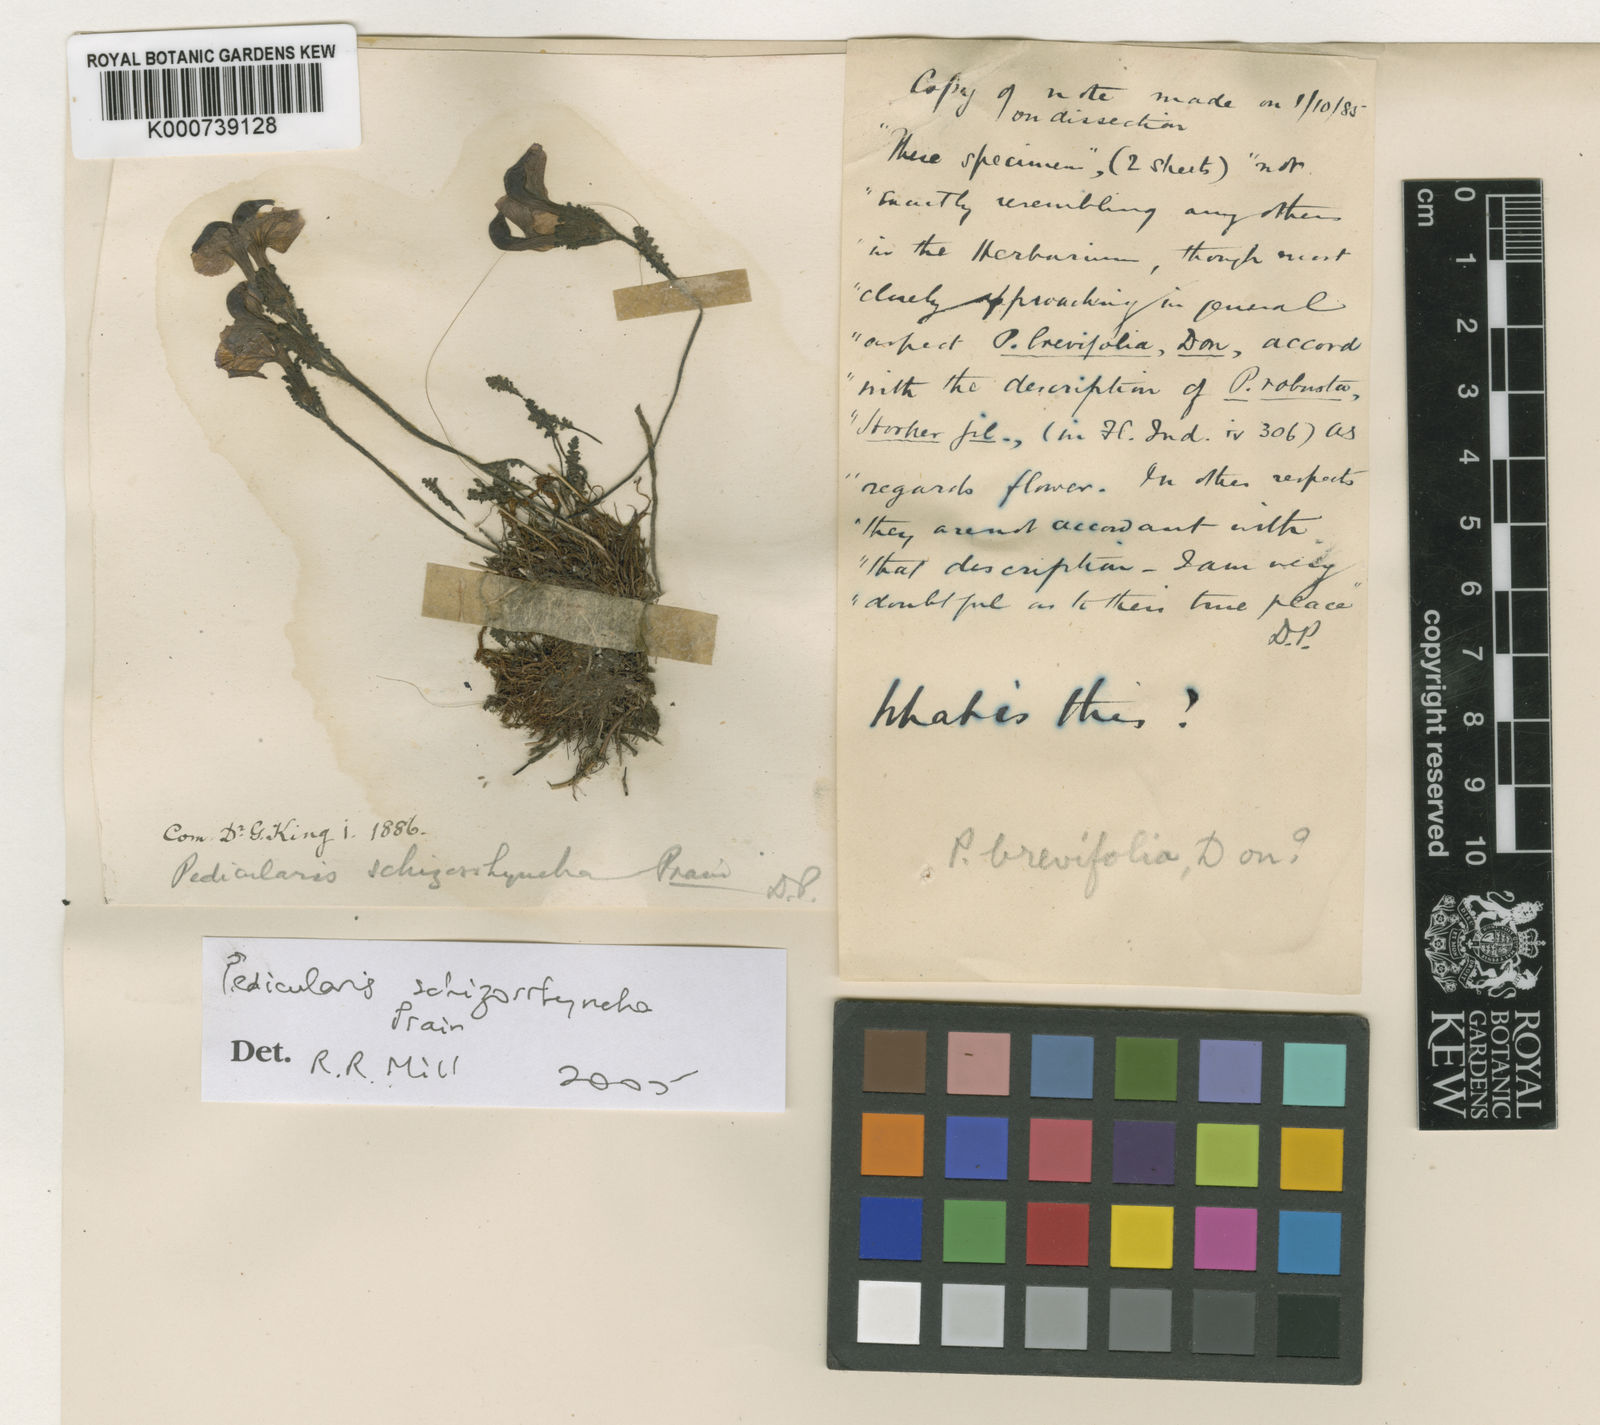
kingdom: Plantae
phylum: Tracheophyta
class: Magnoliopsida
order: Lamiales
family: Orobanchaceae
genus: Pedicularis
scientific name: Pedicularis schizorrhyncha
